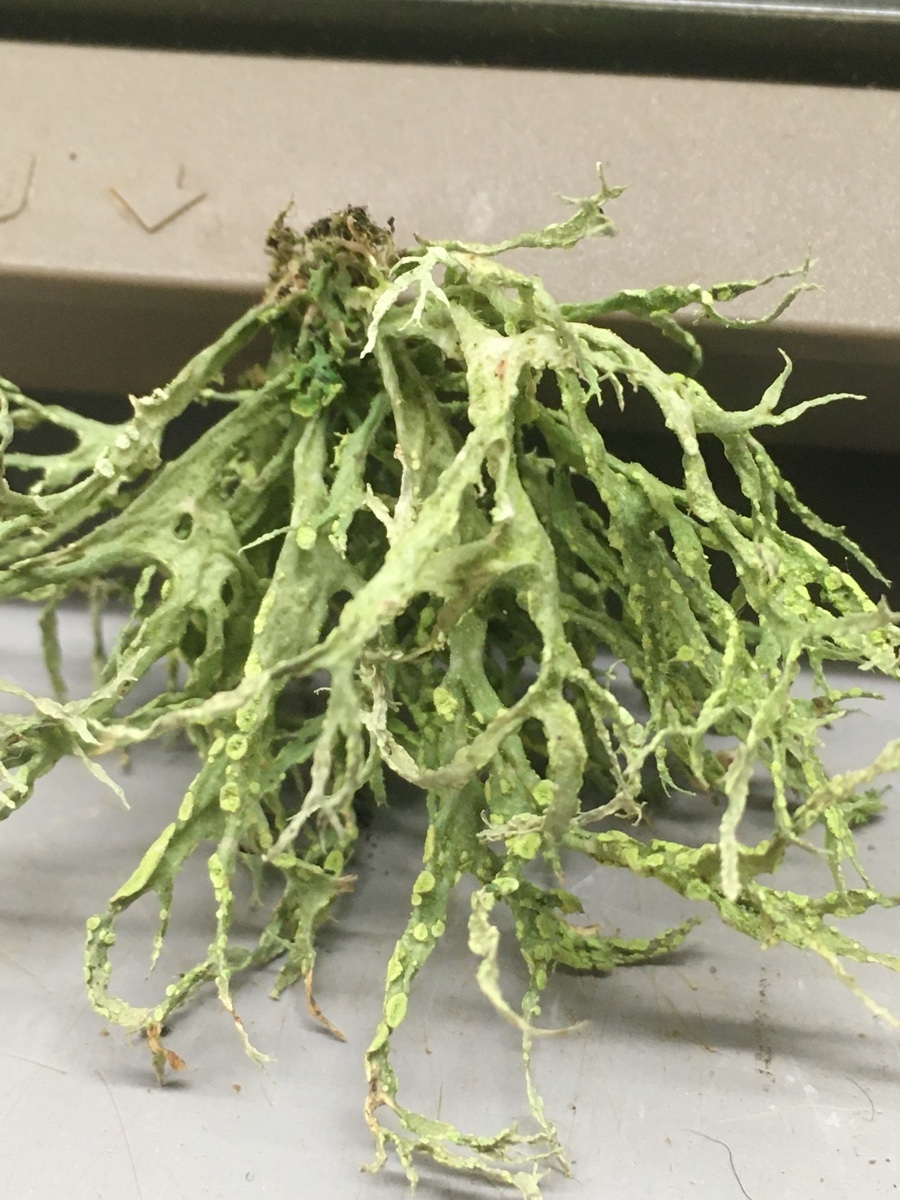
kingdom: Fungi
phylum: Ascomycota
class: Lecanoromycetes
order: Lecanorales
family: Ramalinaceae
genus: Ramalina
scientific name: Ramalina farinacea
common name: melet grenlav
